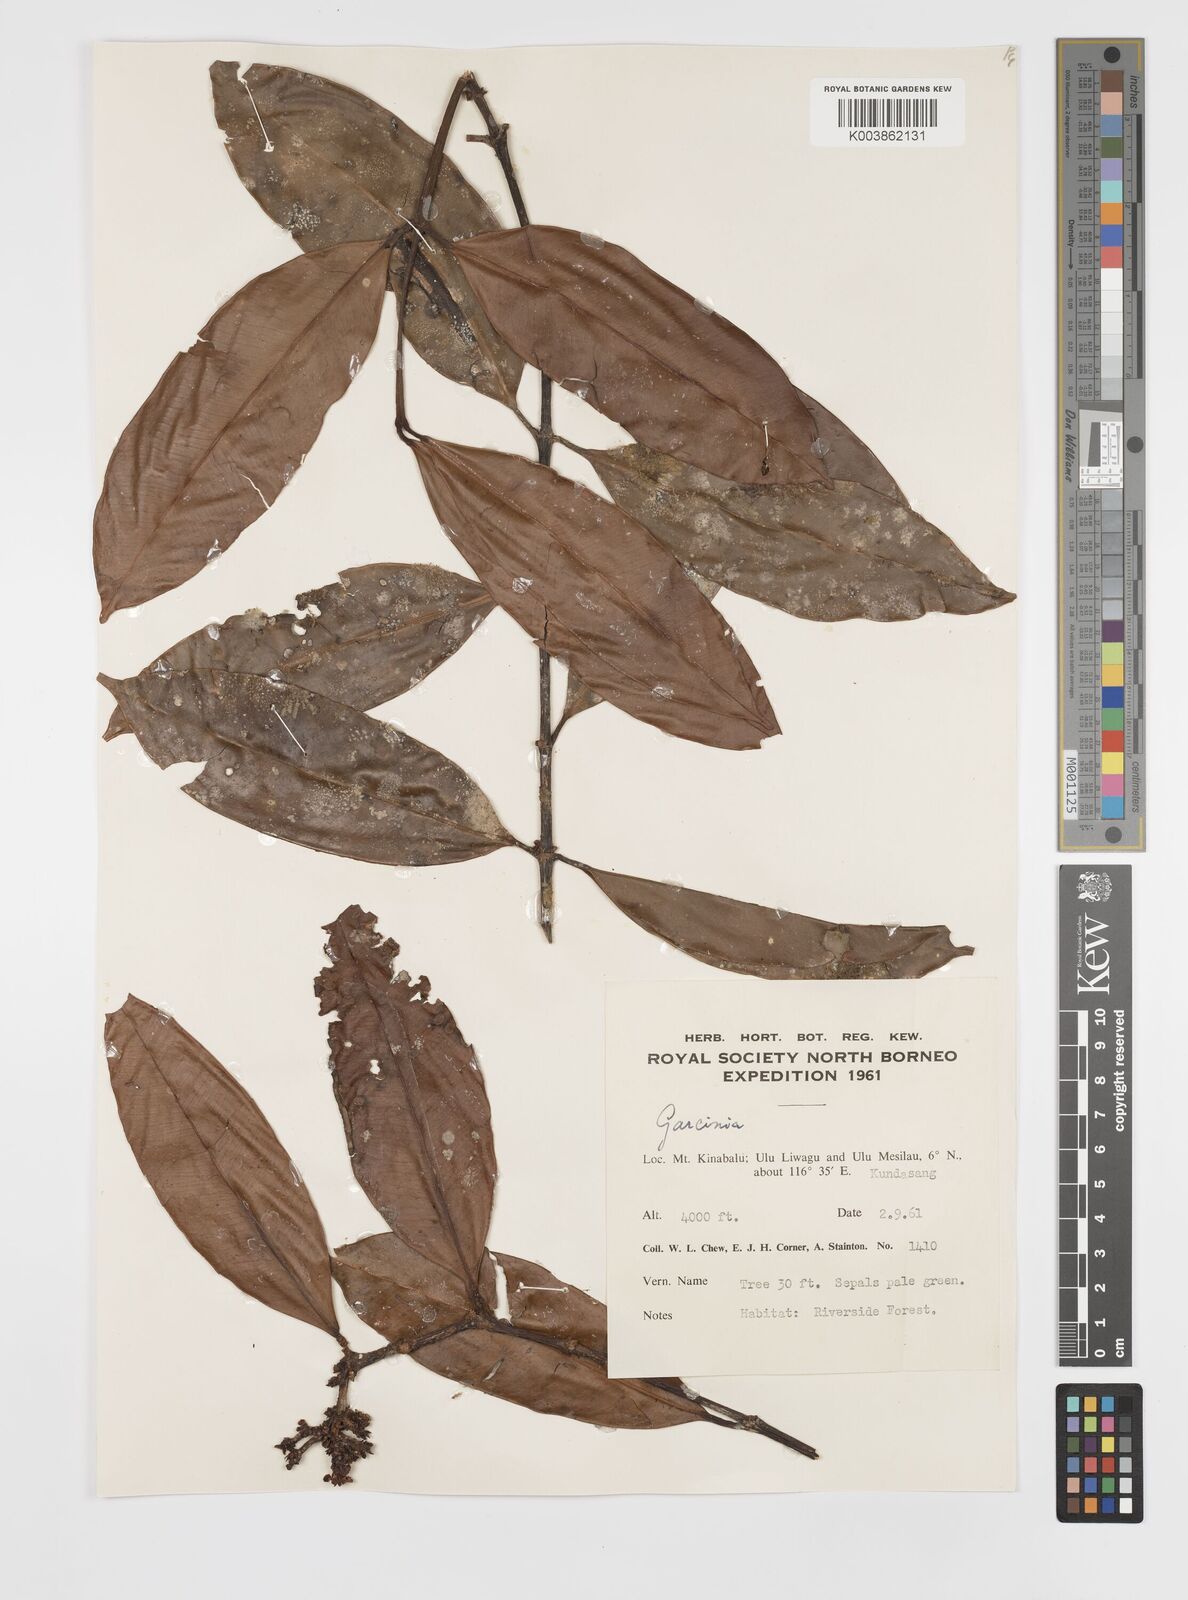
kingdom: Plantae
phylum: Tracheophyta
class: Magnoliopsida
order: Malpighiales
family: Clusiaceae
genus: Garcinia
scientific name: Garcinia
